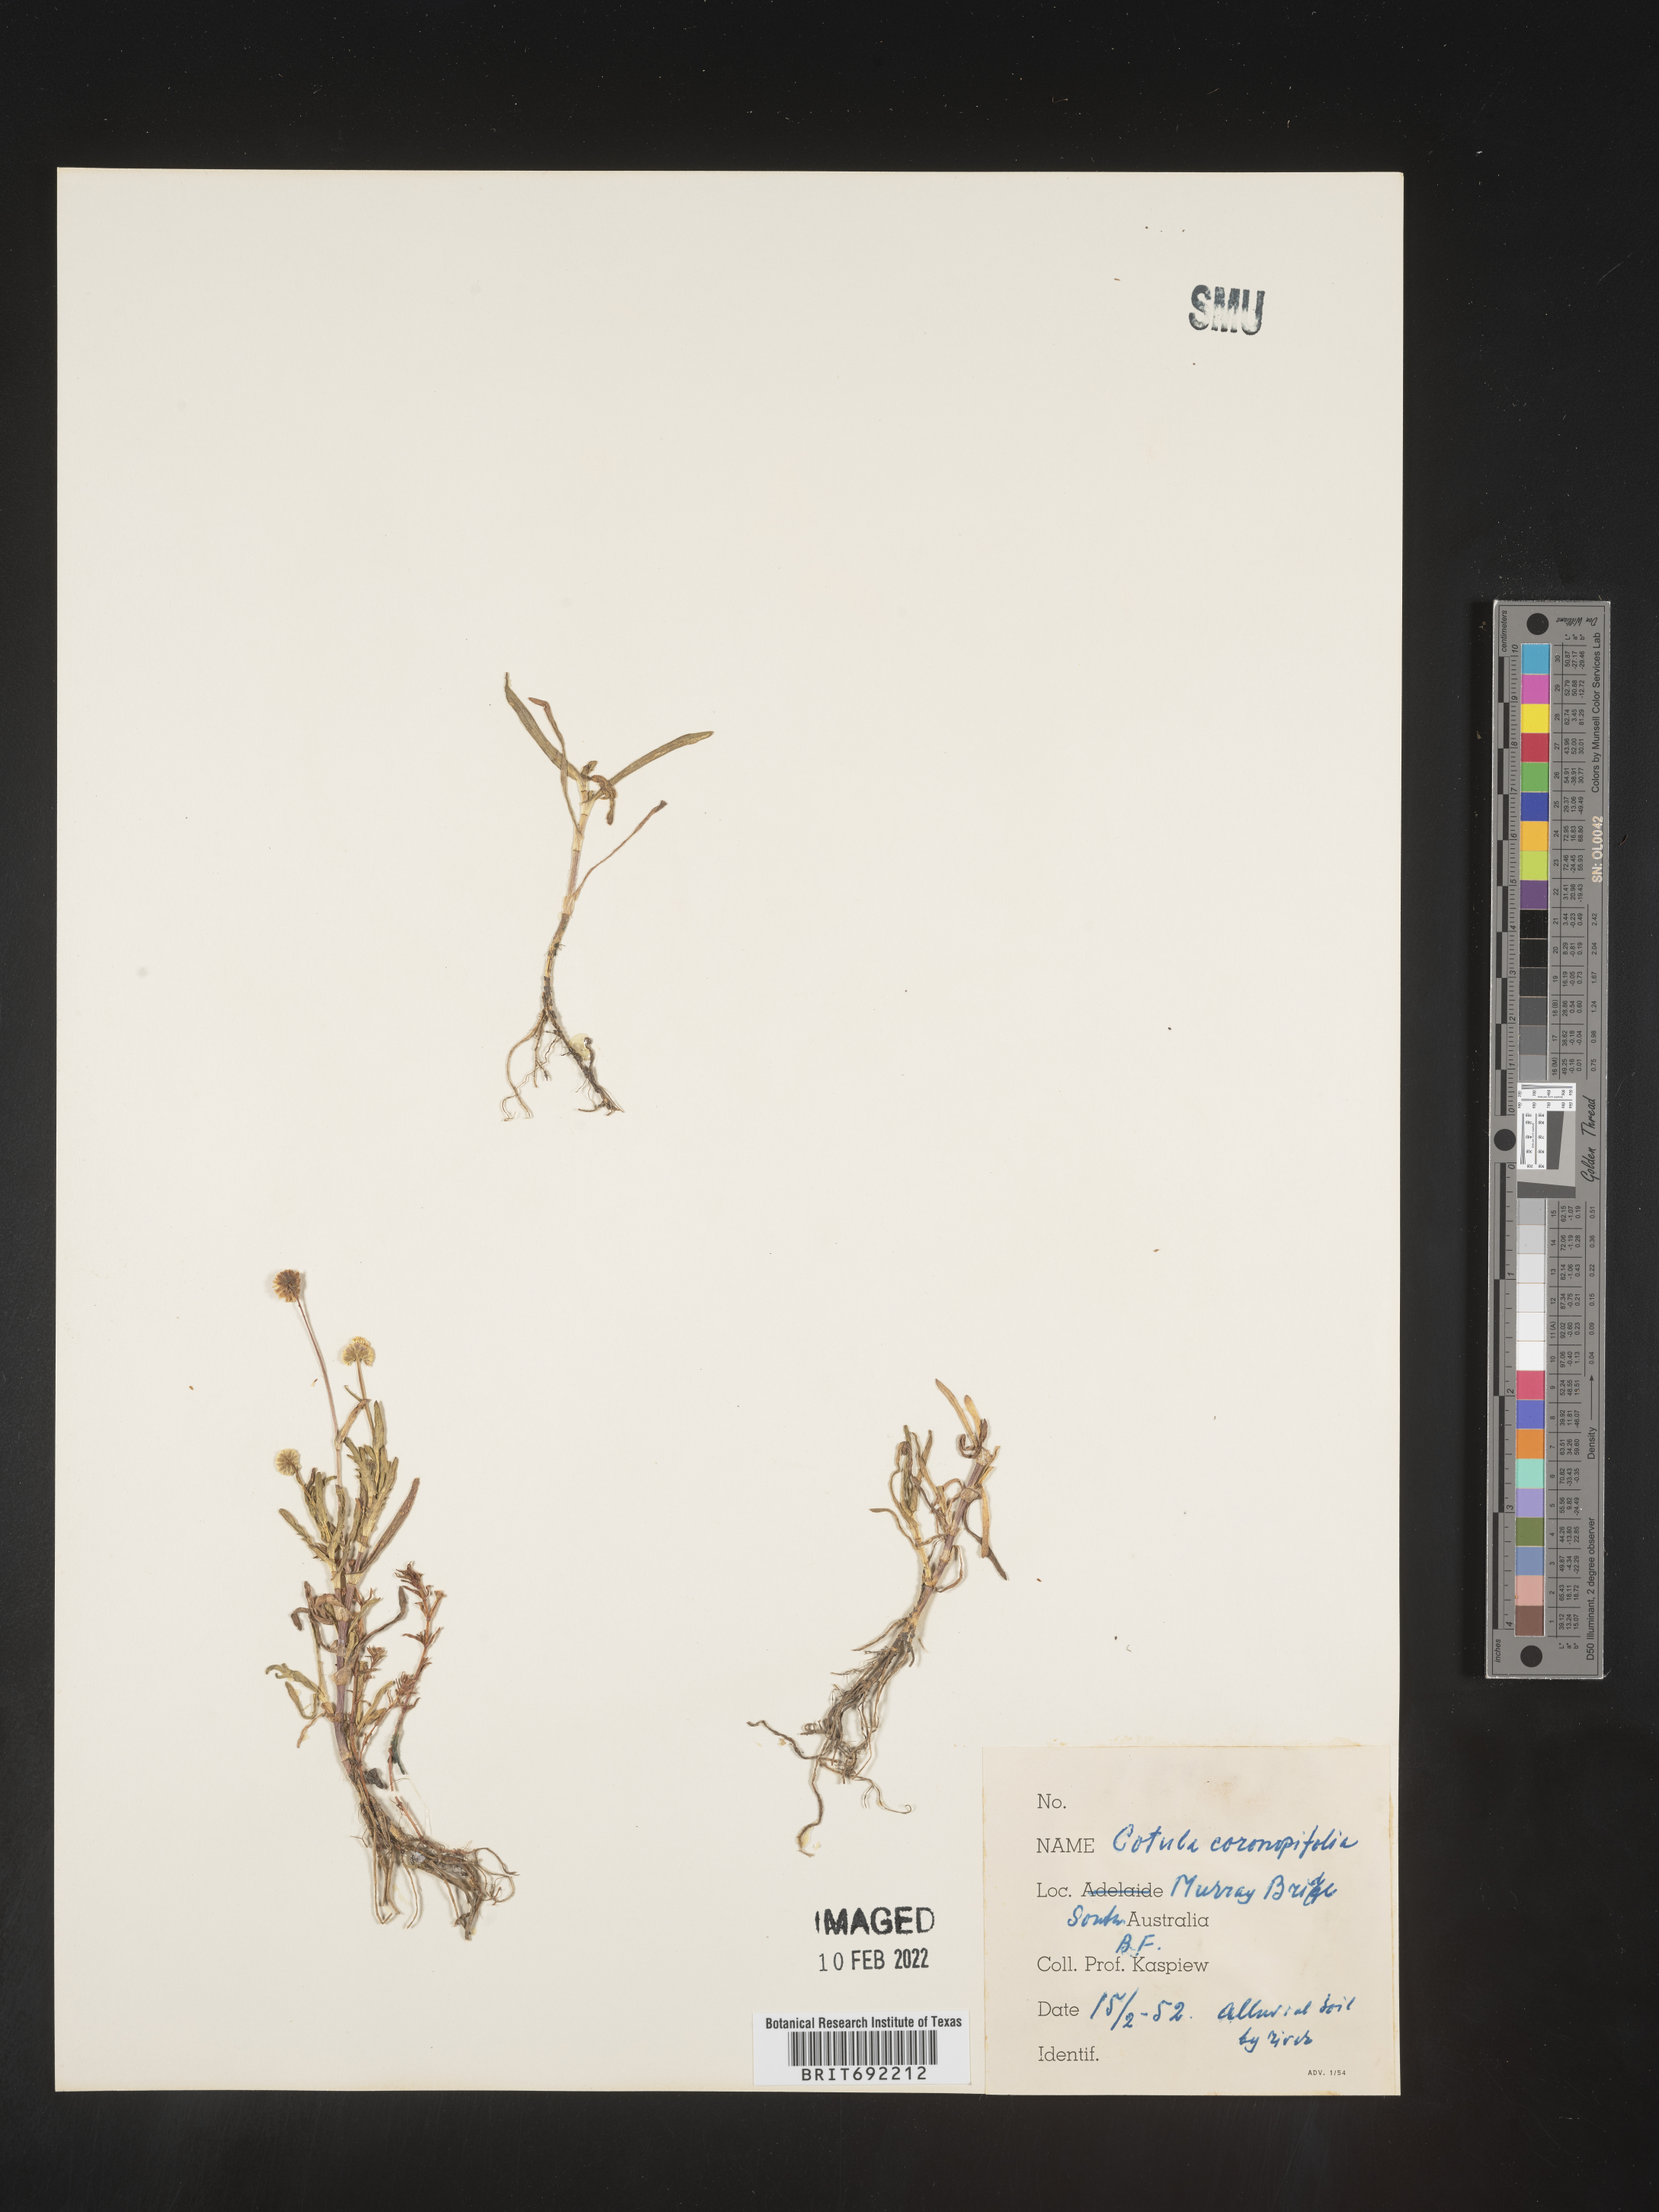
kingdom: Plantae
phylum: Tracheophyta
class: Magnoliopsida
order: Asterales
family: Asteraceae
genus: Cotula
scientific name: Cotula
